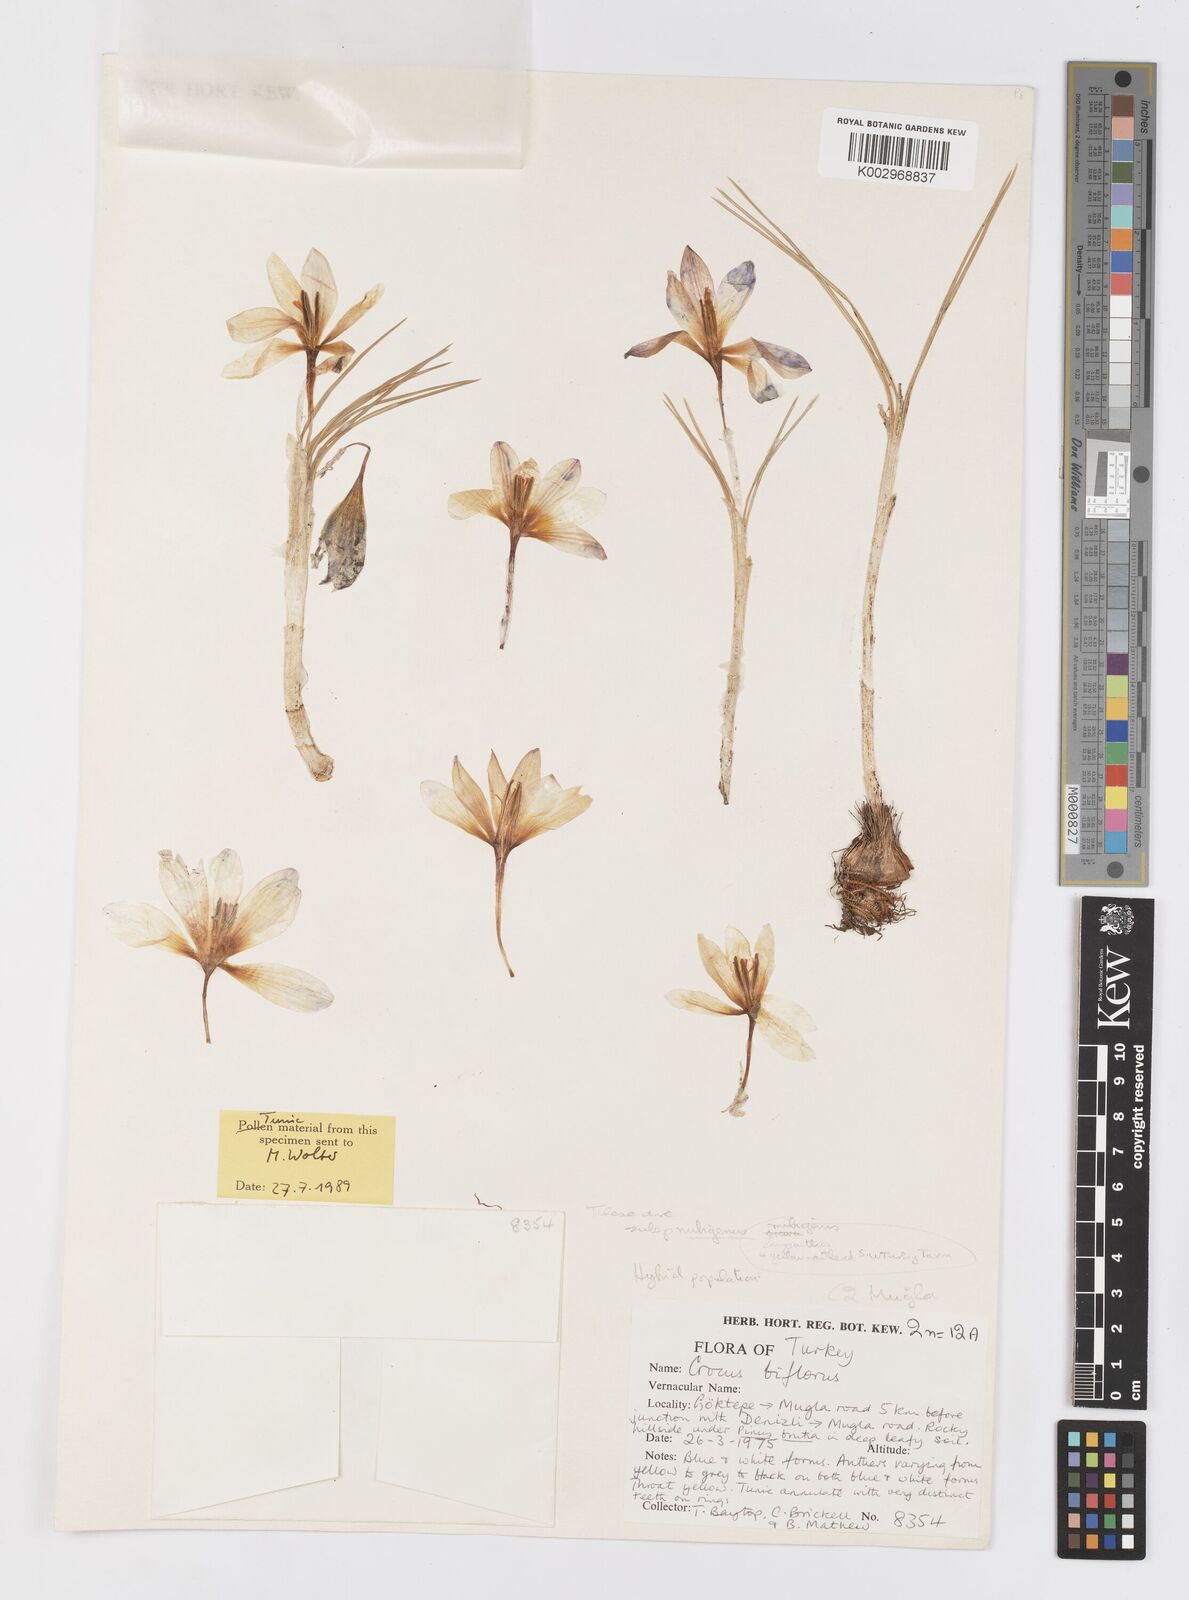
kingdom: Plantae
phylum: Tracheophyta
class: Liliopsida
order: Asparagales
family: Iridaceae
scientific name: Iridaceae
